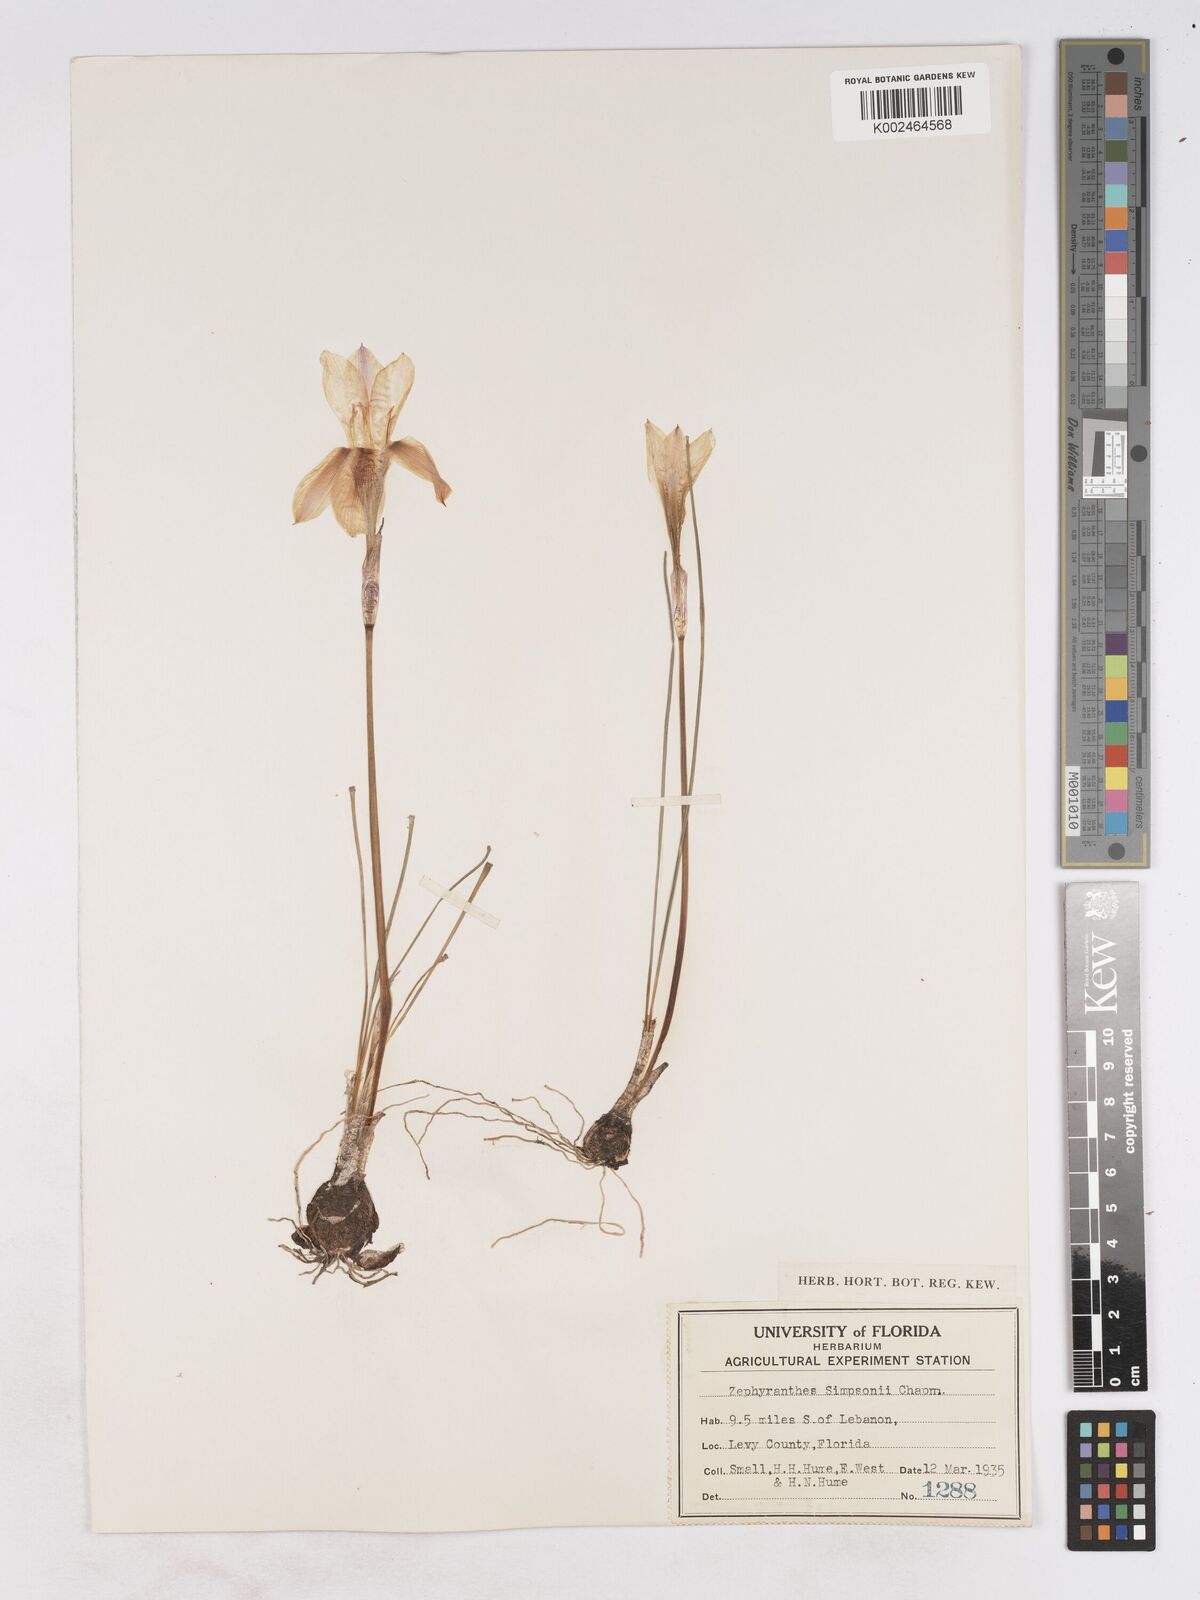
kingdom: Plantae
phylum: Tracheophyta
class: Liliopsida
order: Asparagales
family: Amaryllidaceae
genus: Zephyranthes
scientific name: Zephyranthes simpsonii
